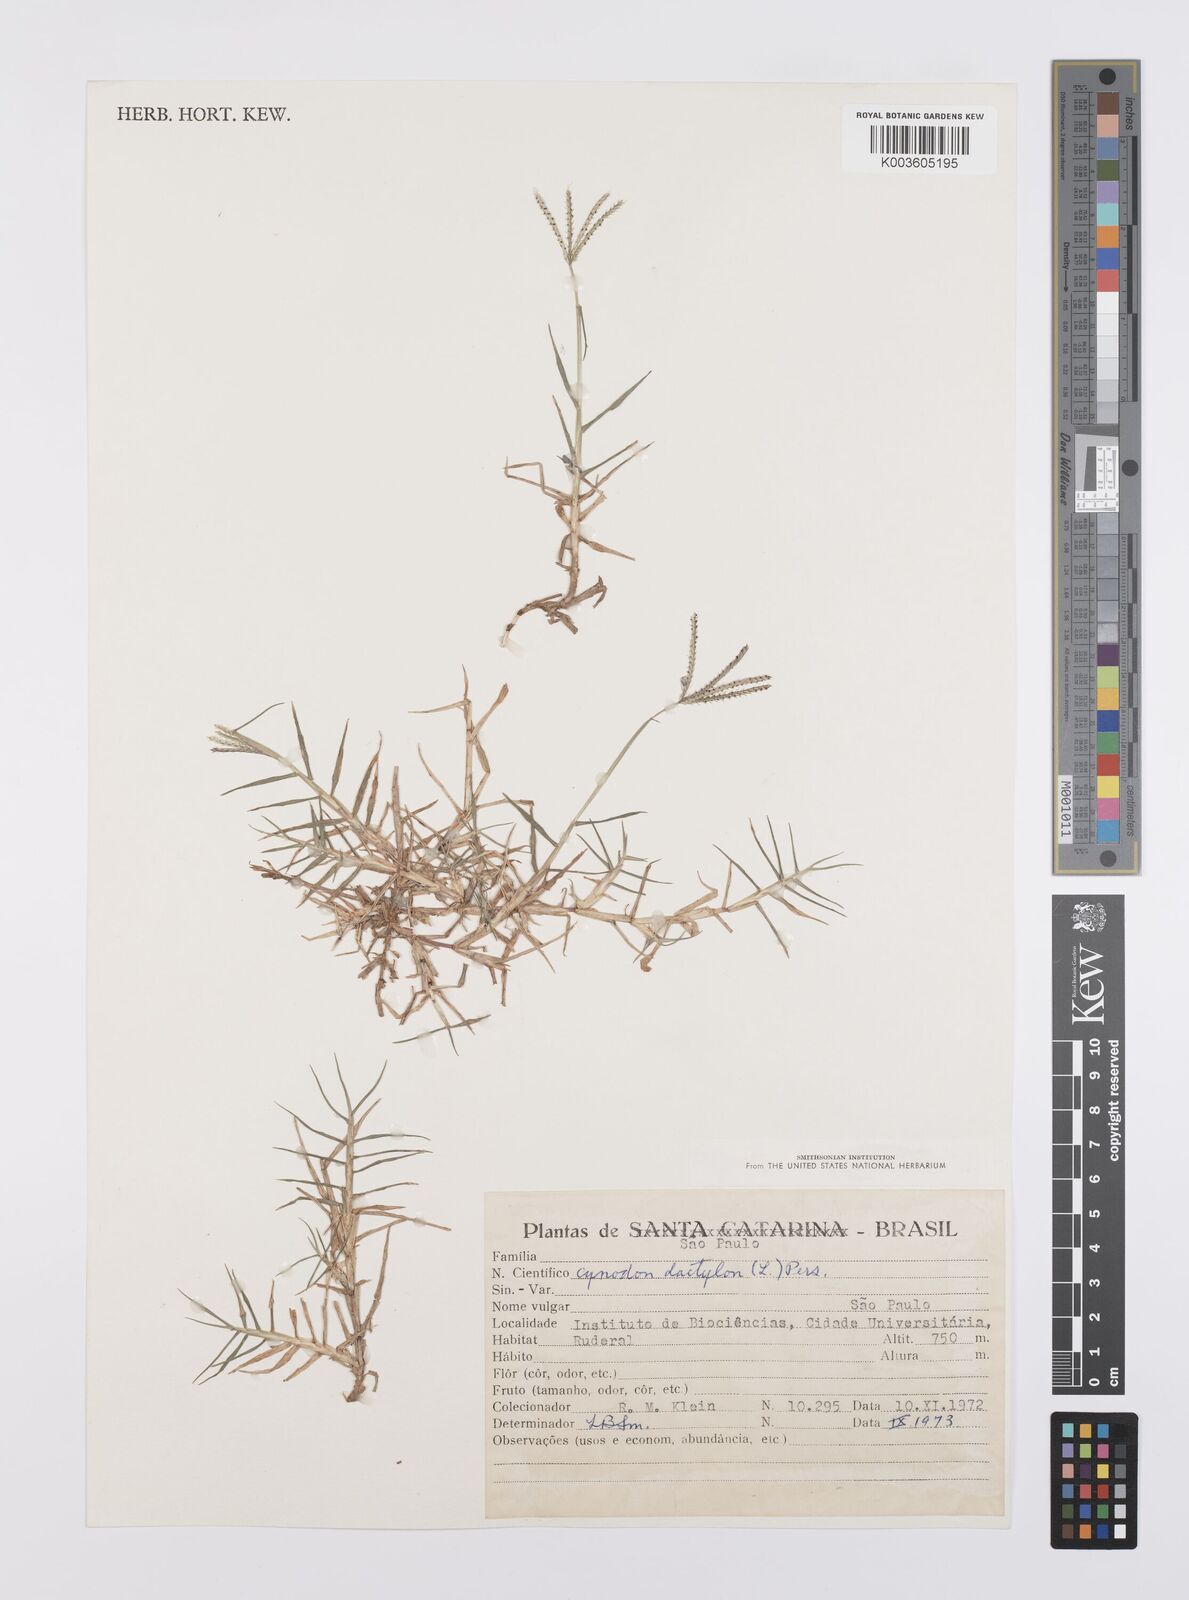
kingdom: Plantae
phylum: Tracheophyta
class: Liliopsida
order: Poales
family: Poaceae
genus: Cynodon
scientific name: Cynodon dactylon
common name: Bermuda grass
